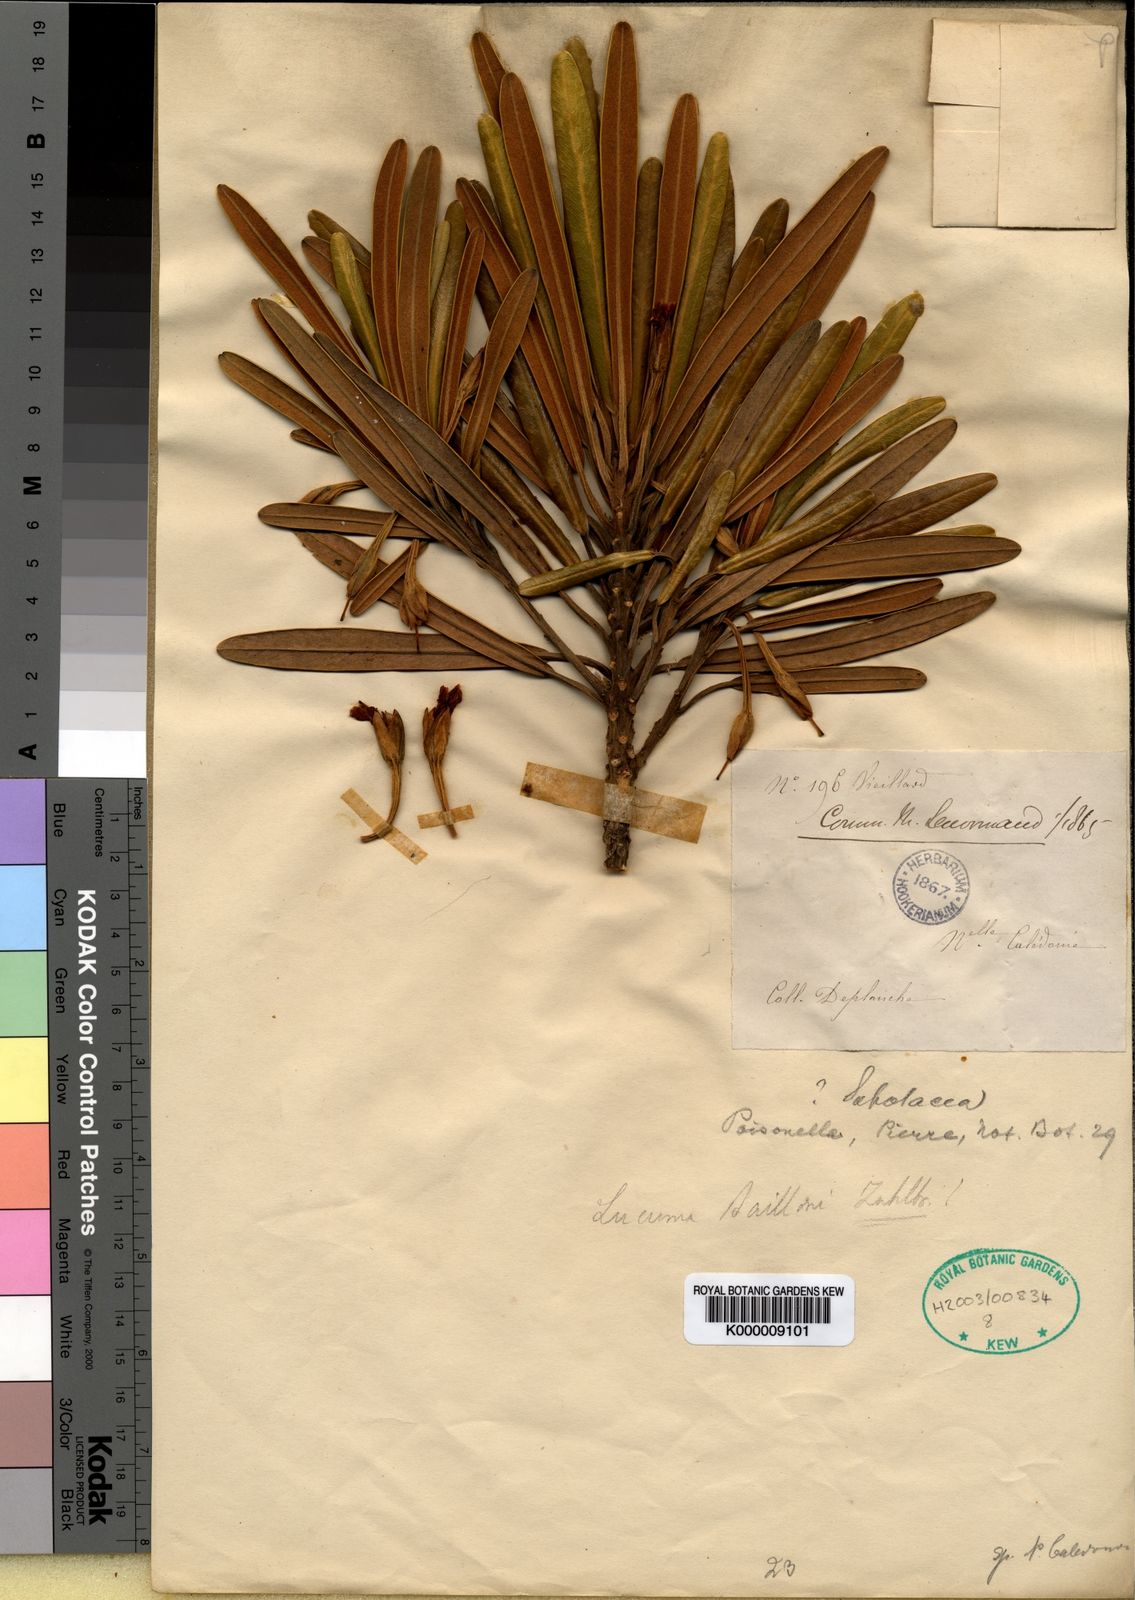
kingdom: Plantae
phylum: Tracheophyta
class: Magnoliopsida
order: Ericales
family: Sapotaceae
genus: Planchonella
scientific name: Planchonella baillonii
